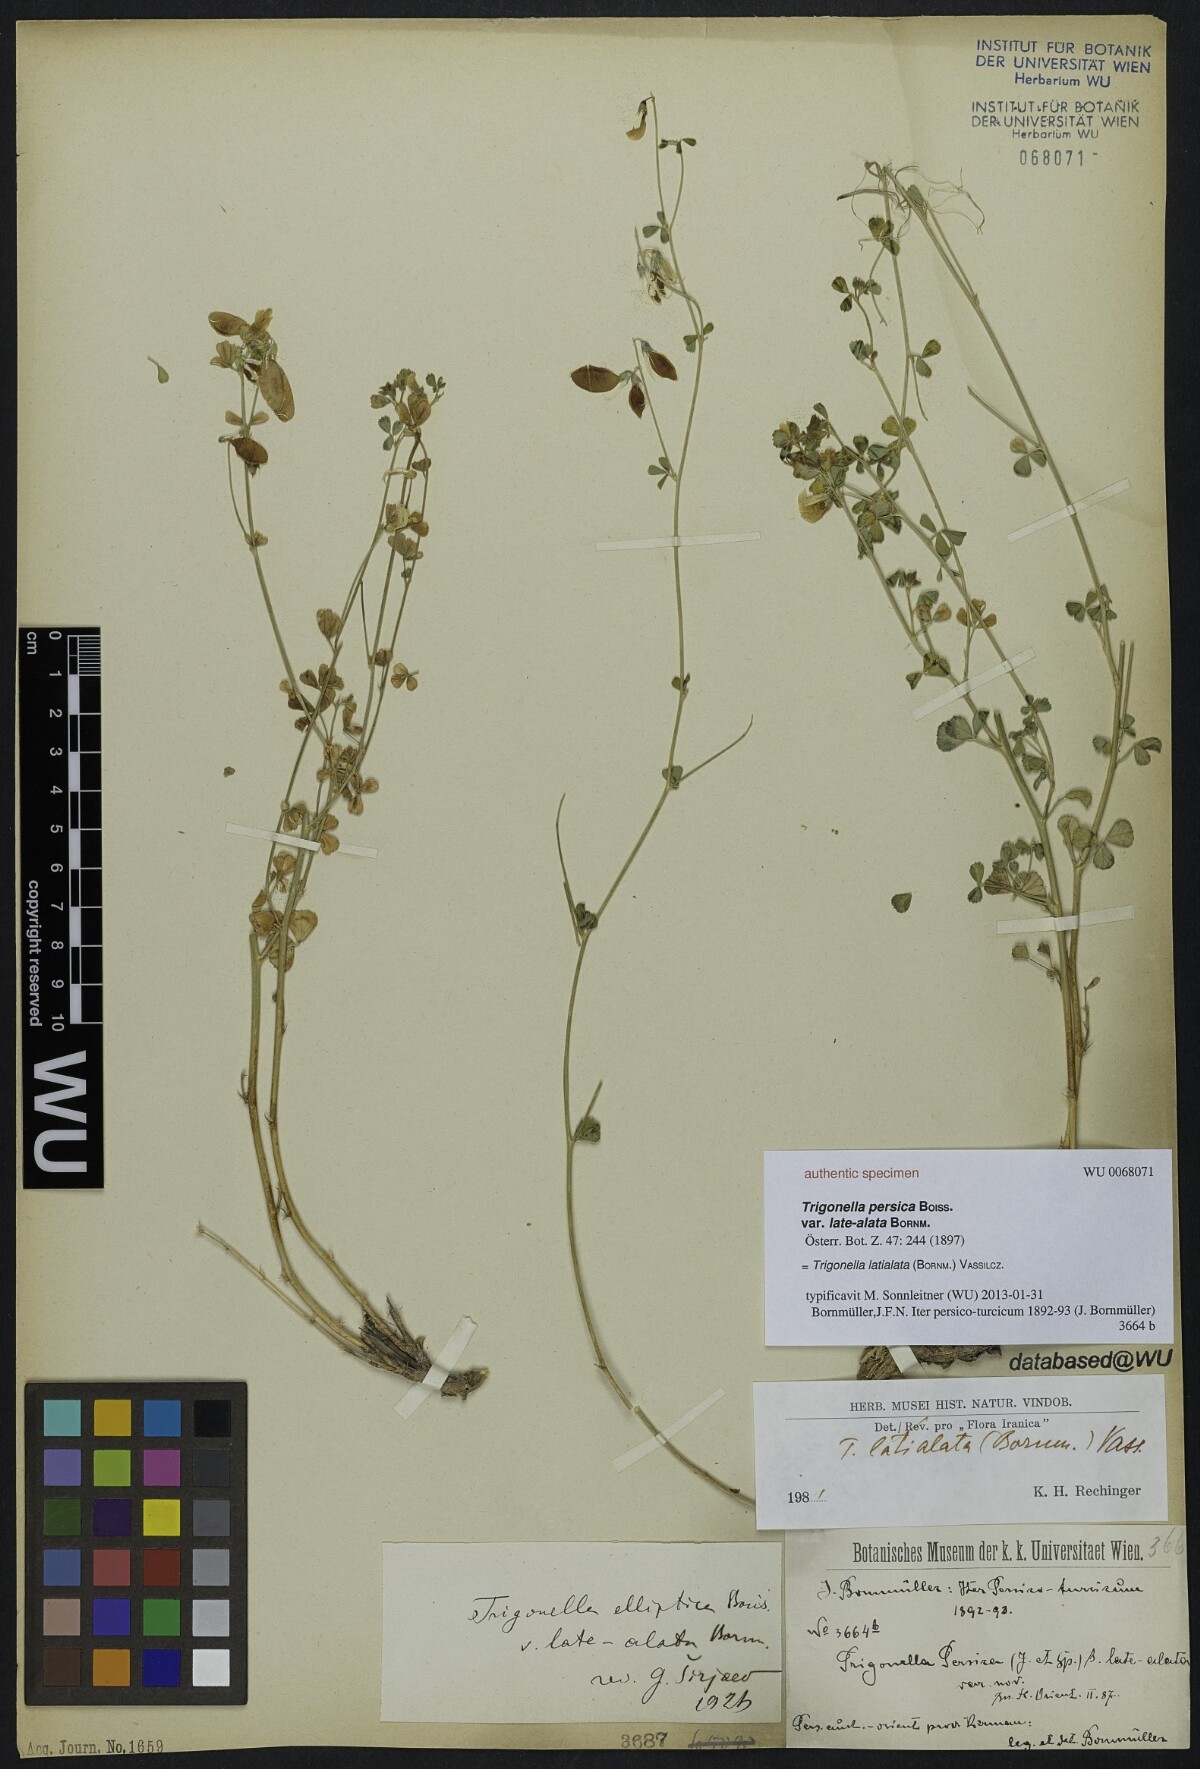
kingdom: Plantae
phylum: Tracheophyta
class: Magnoliopsida
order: Fabales
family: Fabaceae
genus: Trigonella
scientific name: Trigonella late-alata
